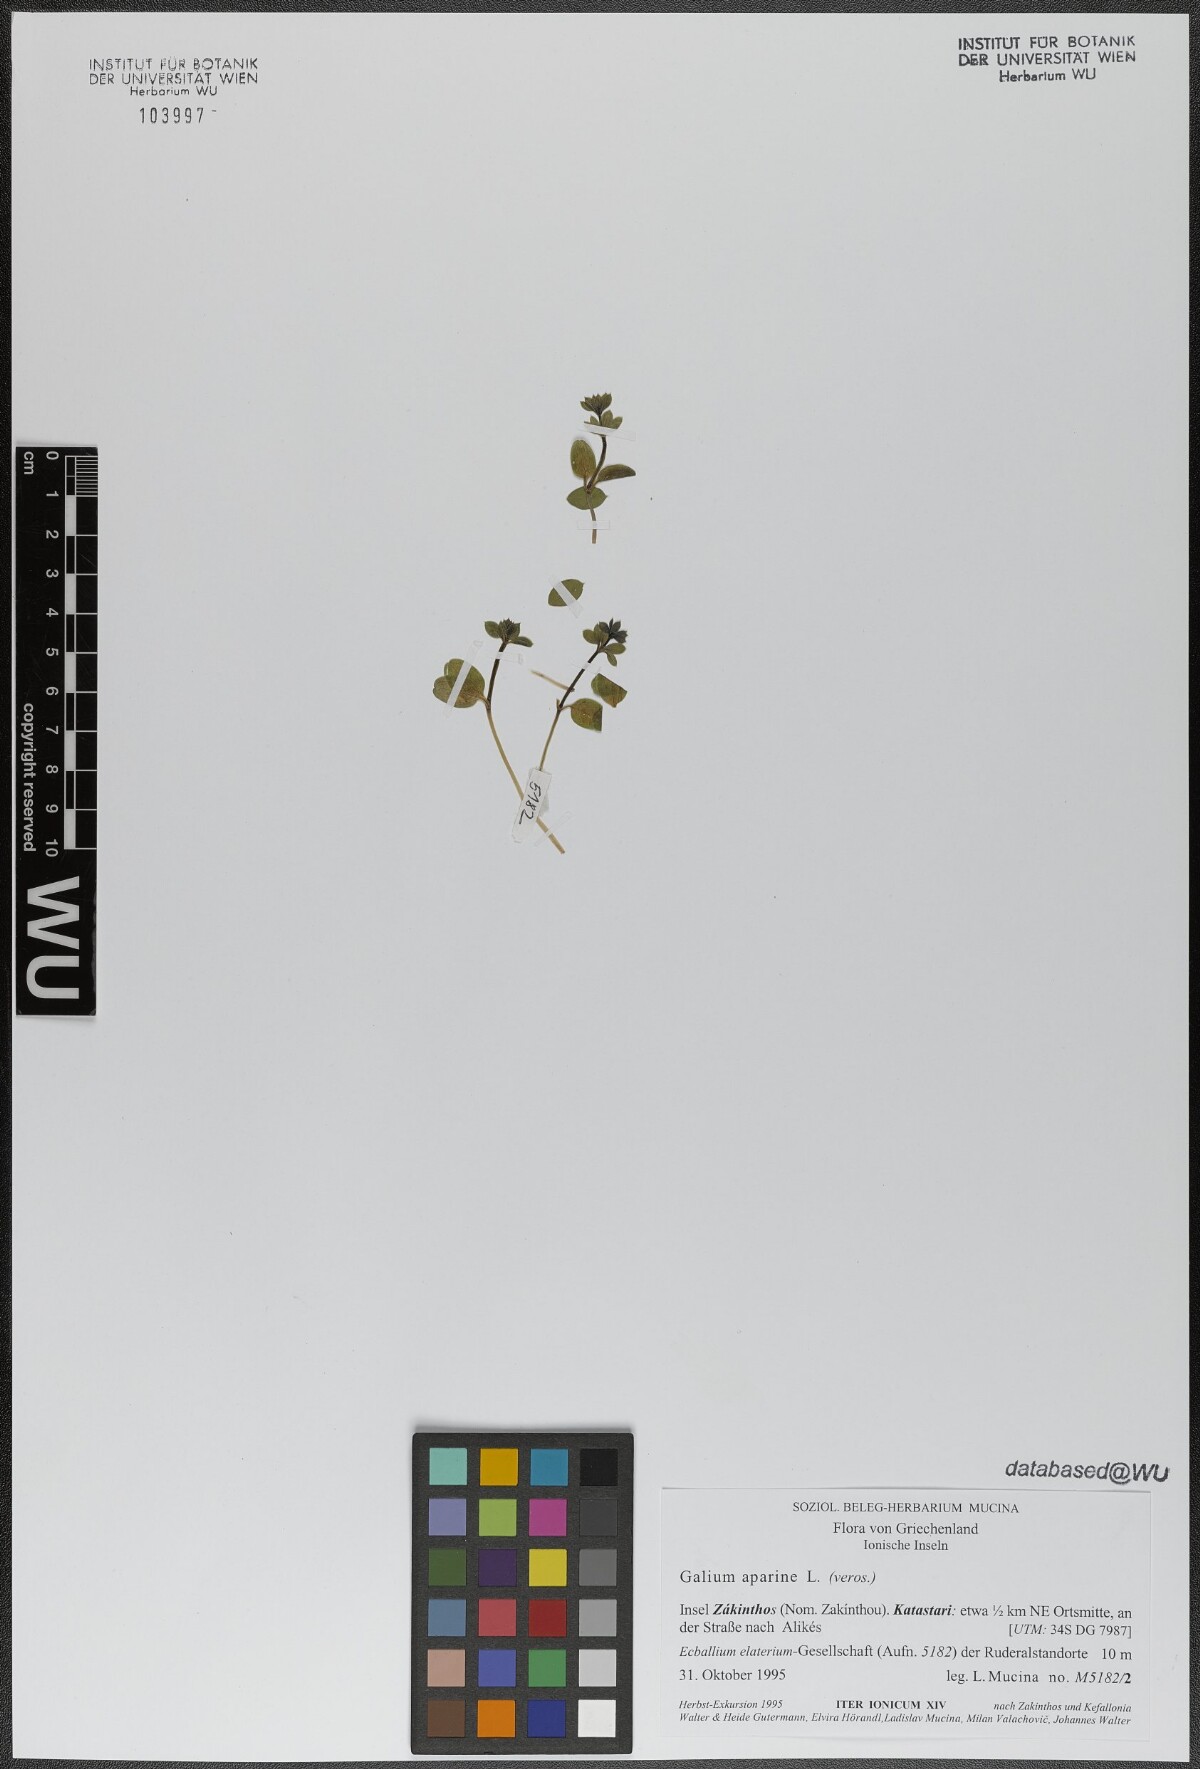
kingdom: Plantae
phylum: Tracheophyta
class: Magnoliopsida
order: Gentianales
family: Rubiaceae
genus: Galium
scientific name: Galium aparine
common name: Cleavers
